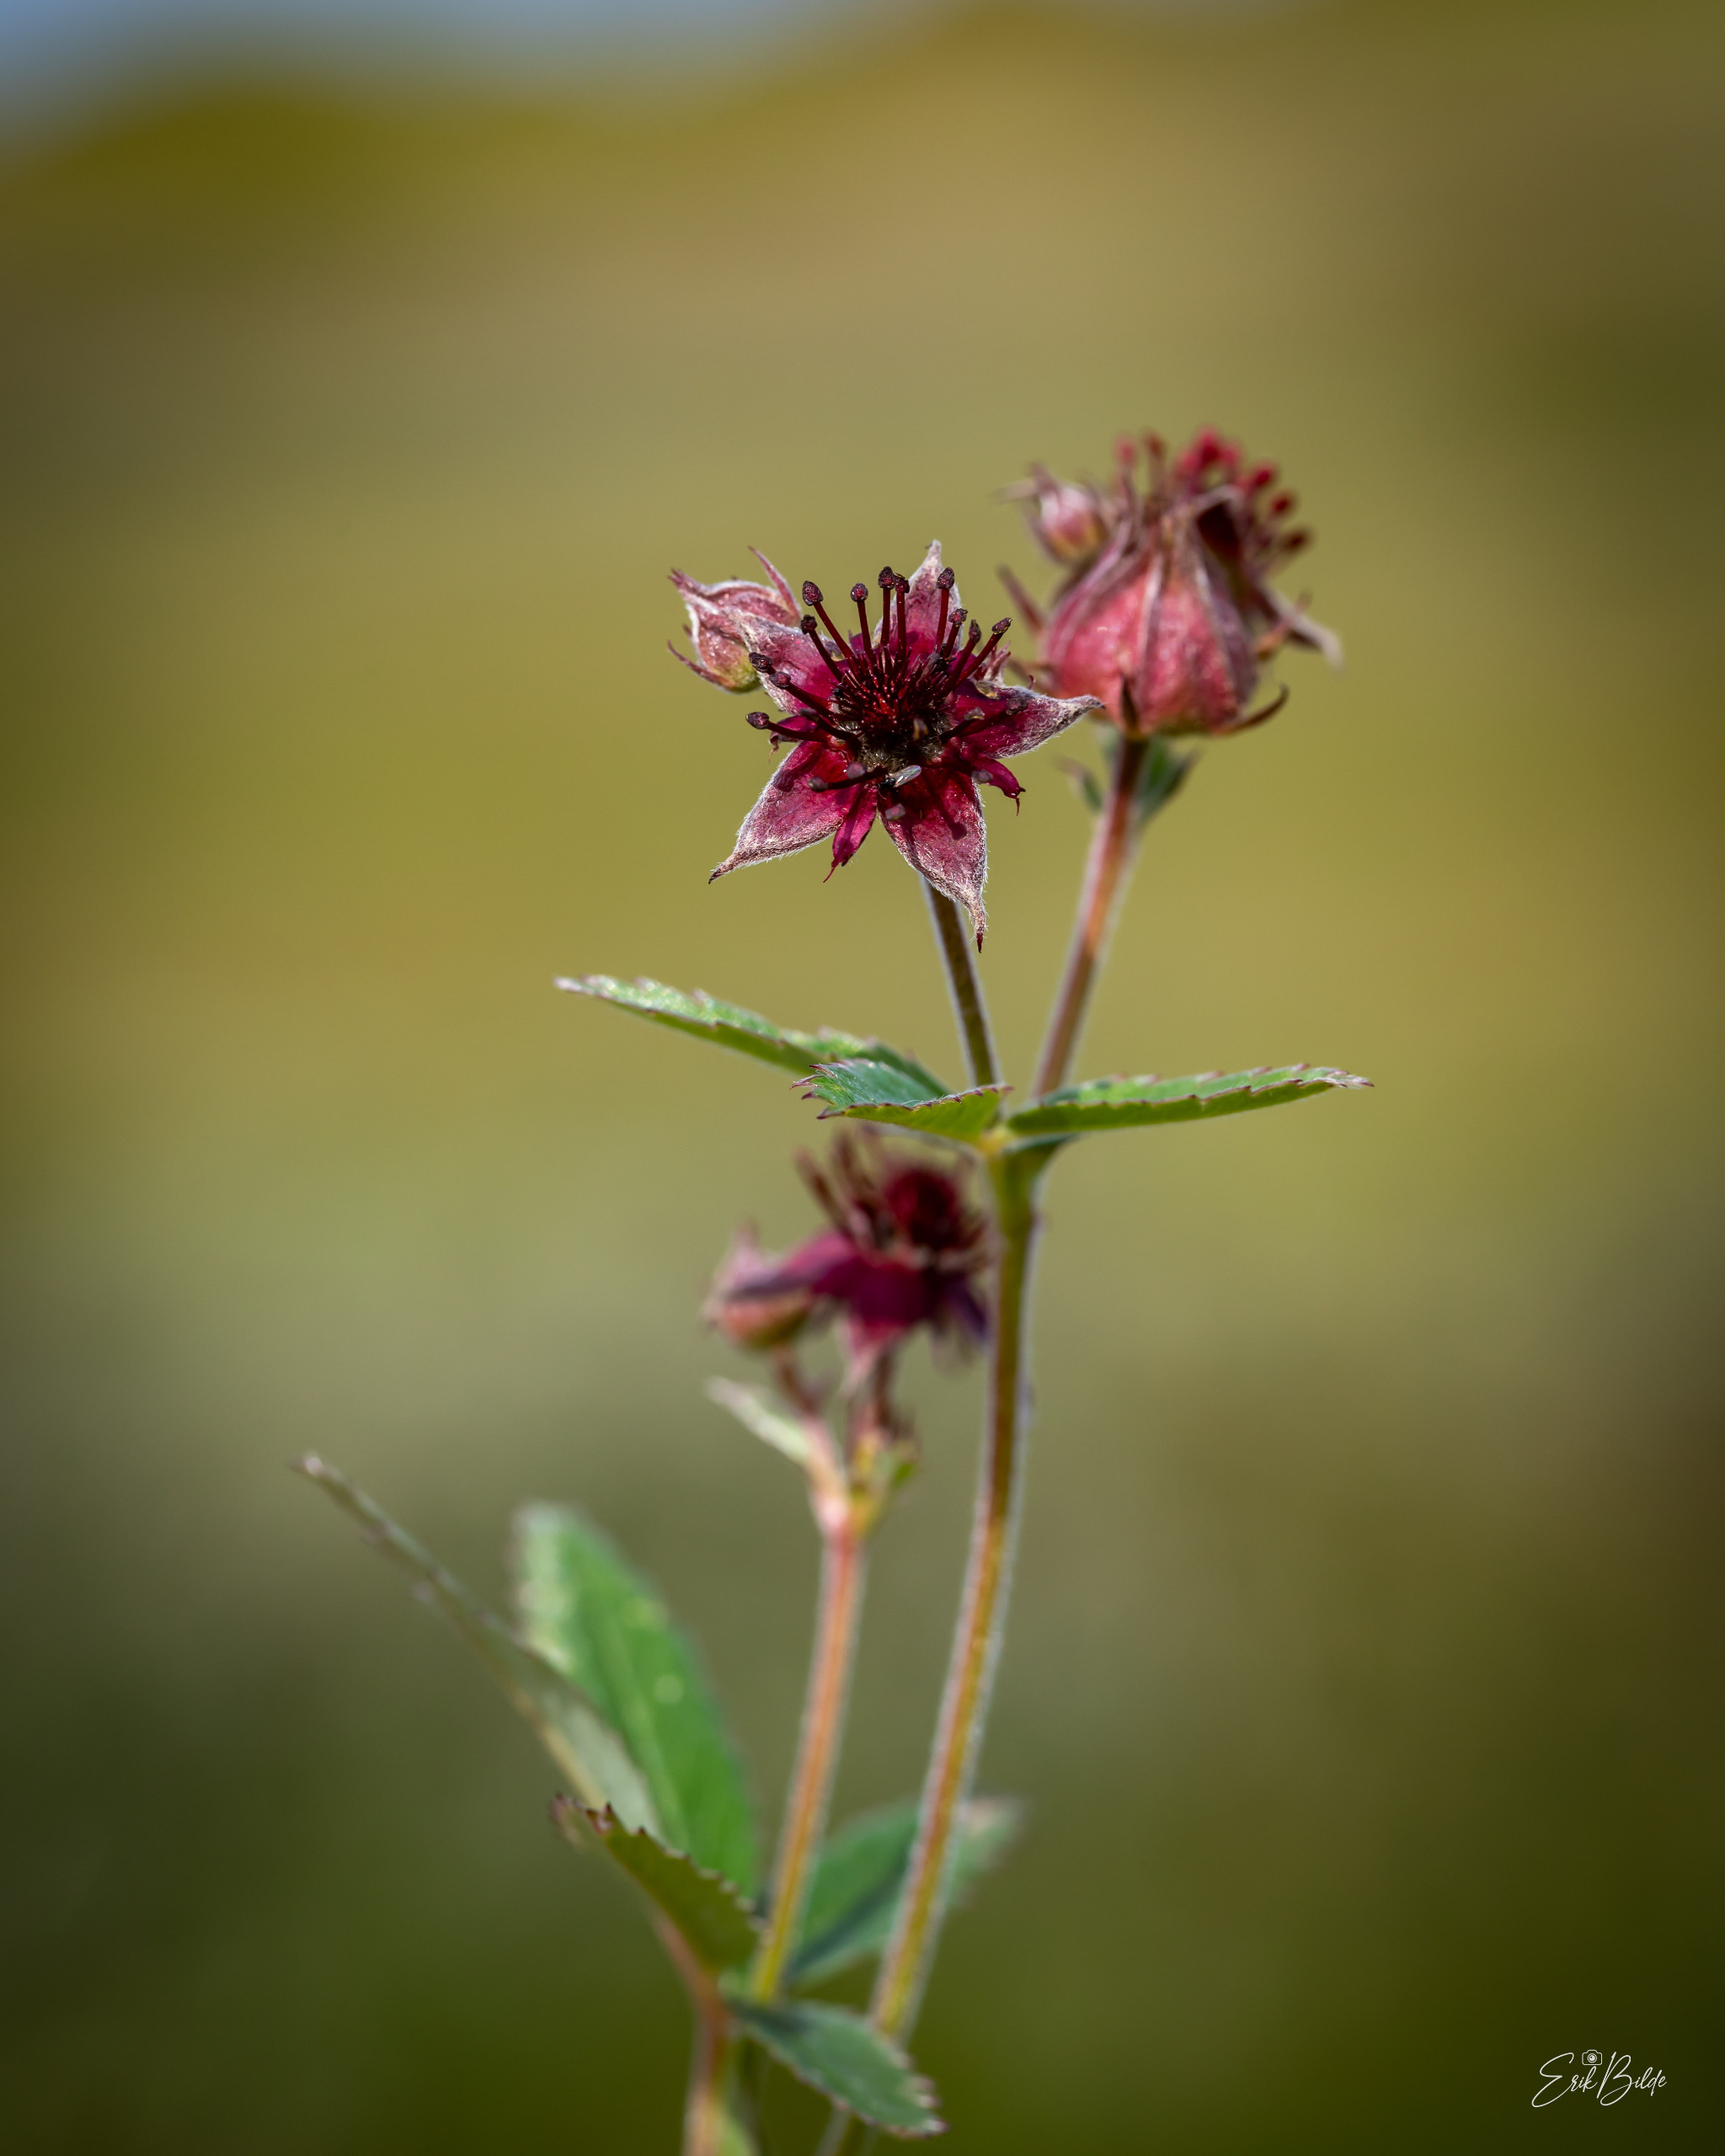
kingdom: Plantae
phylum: Tracheophyta
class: Magnoliopsida
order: Rosales
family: Rosaceae
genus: Comarum
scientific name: Comarum palustre
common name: Kragefod
